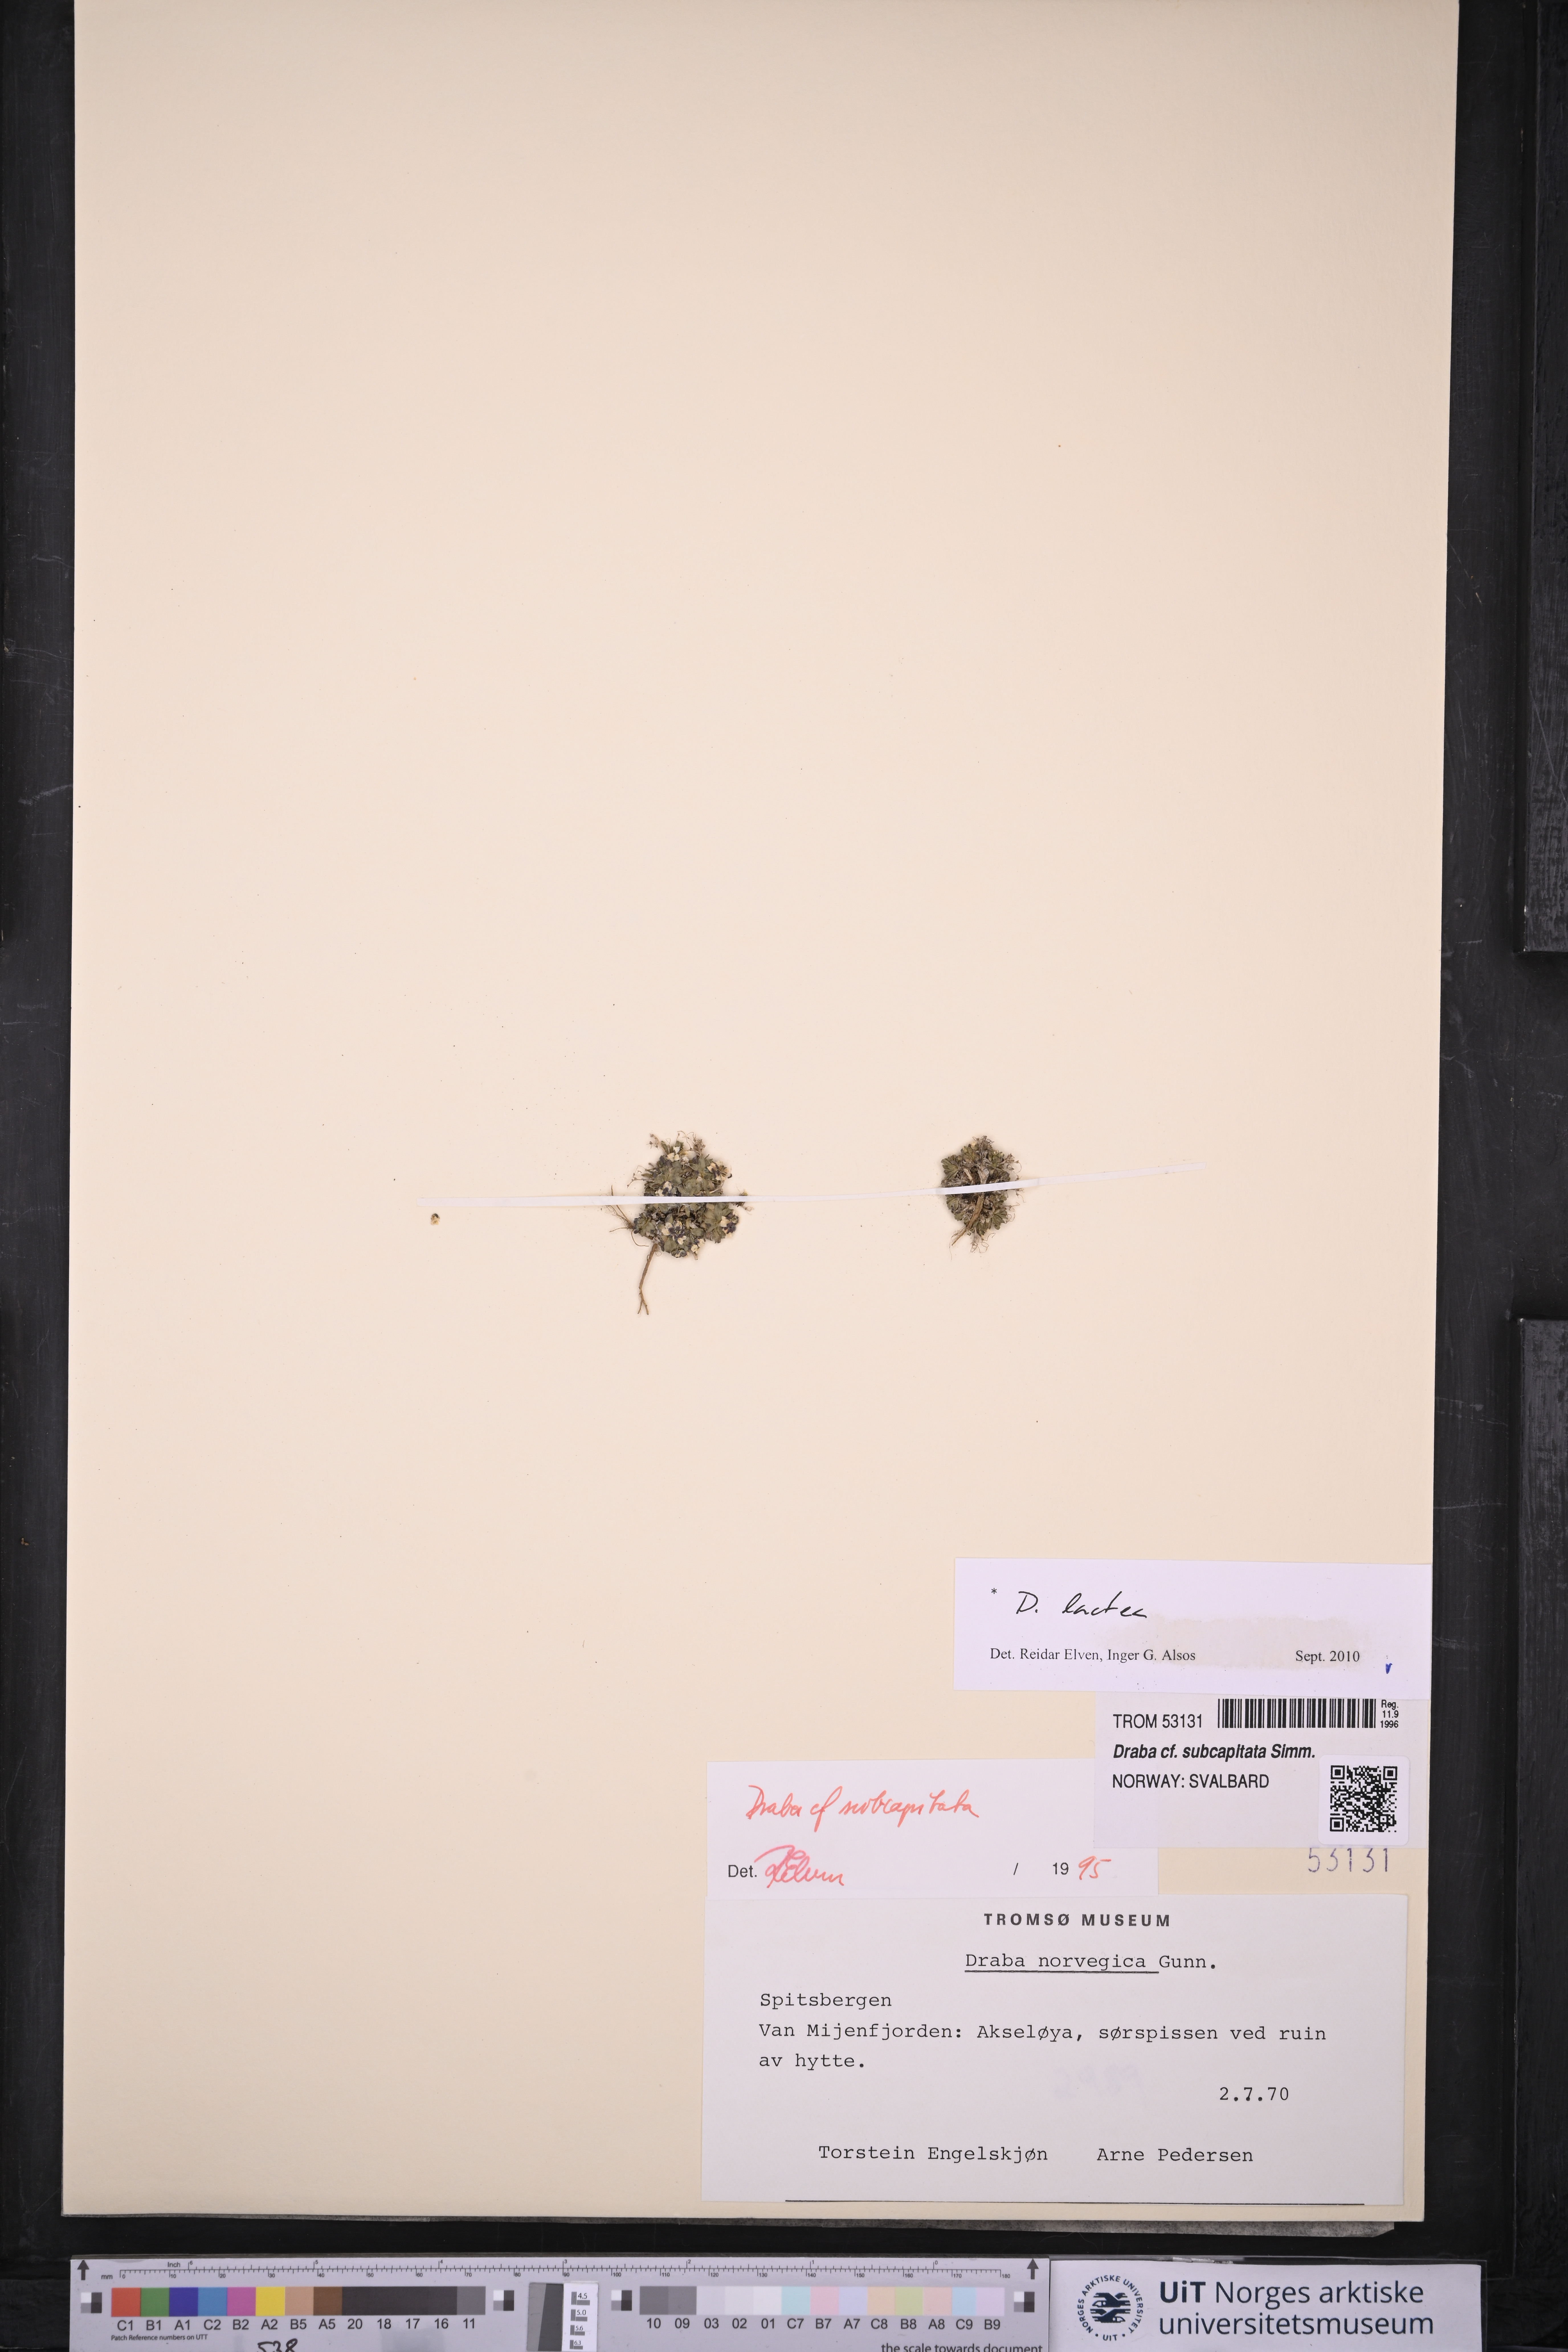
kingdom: Plantae
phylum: Tracheophyta
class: Magnoliopsida
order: Brassicales
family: Brassicaceae
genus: Draba
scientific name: Draba lactea
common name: Milky draba
